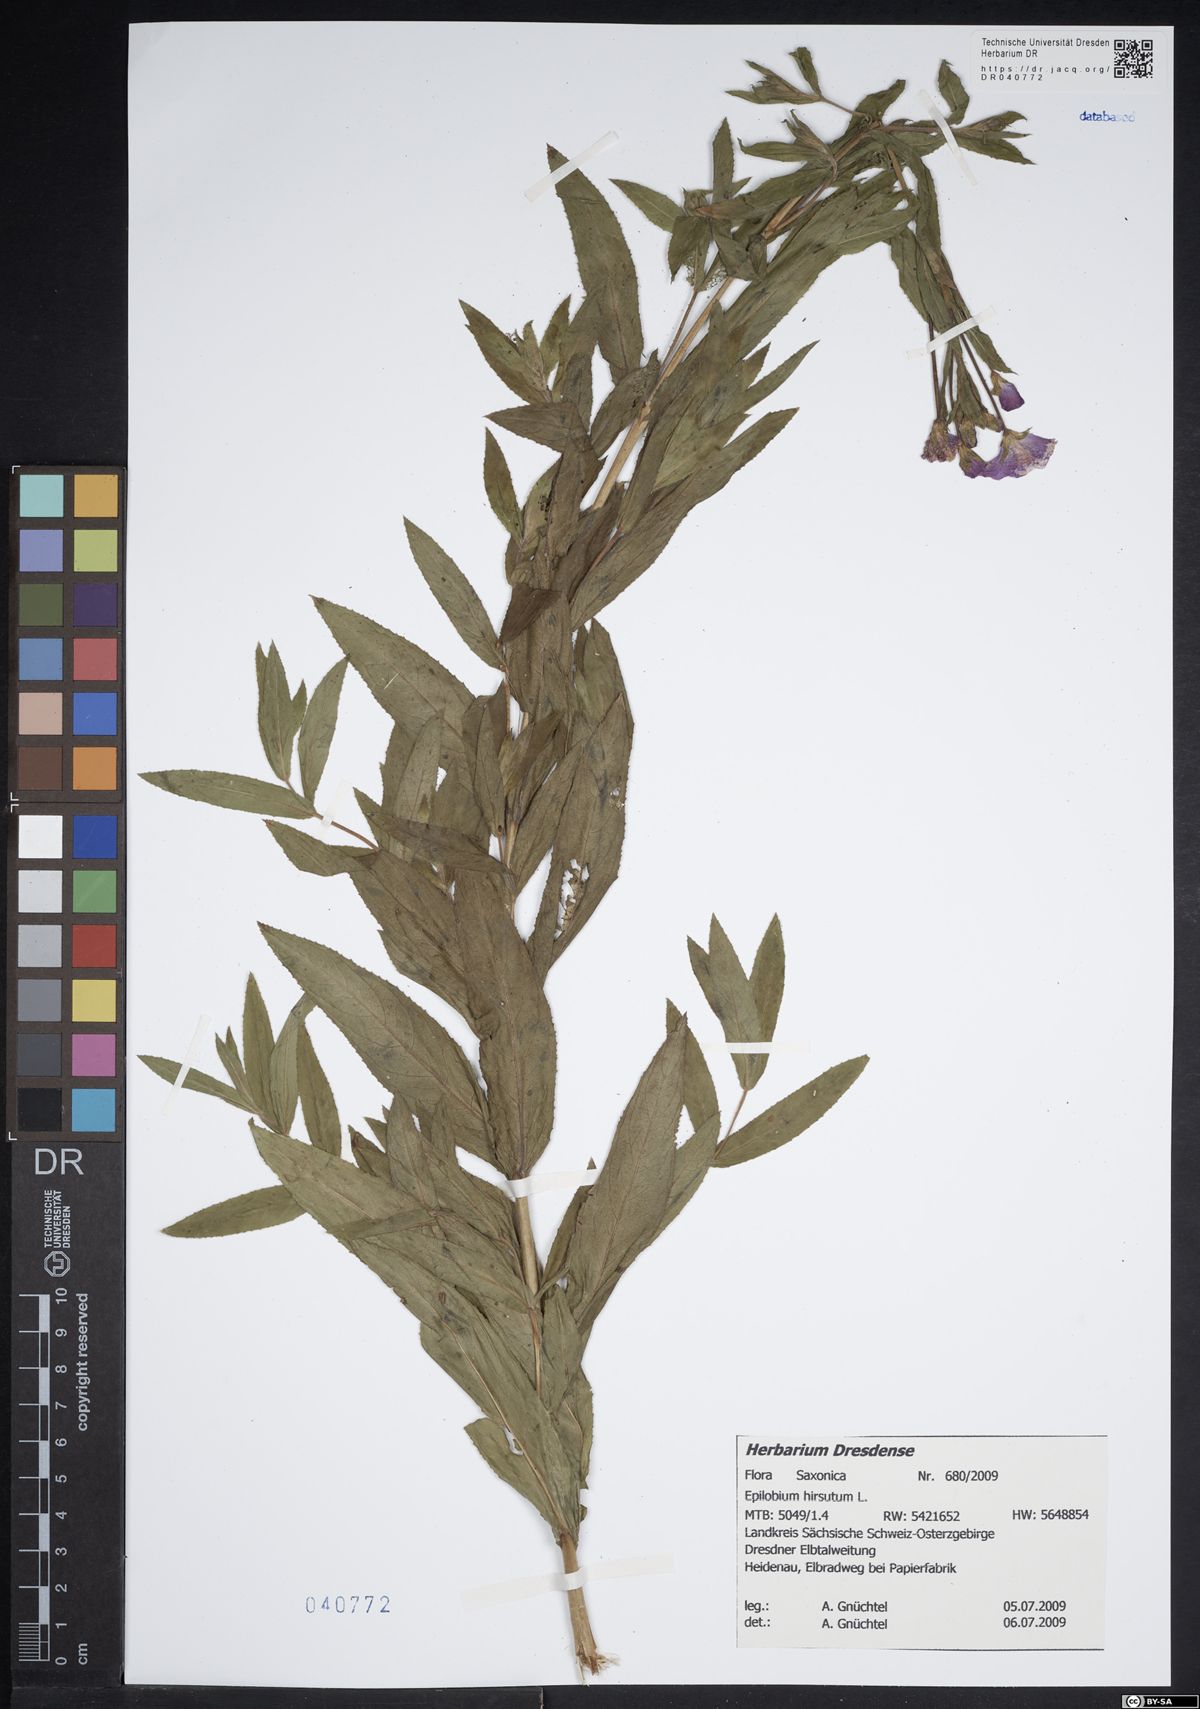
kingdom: Plantae
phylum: Tracheophyta
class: Magnoliopsida
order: Myrtales
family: Onagraceae
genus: Epilobium
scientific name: Epilobium hirsutum
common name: Great willowherb
